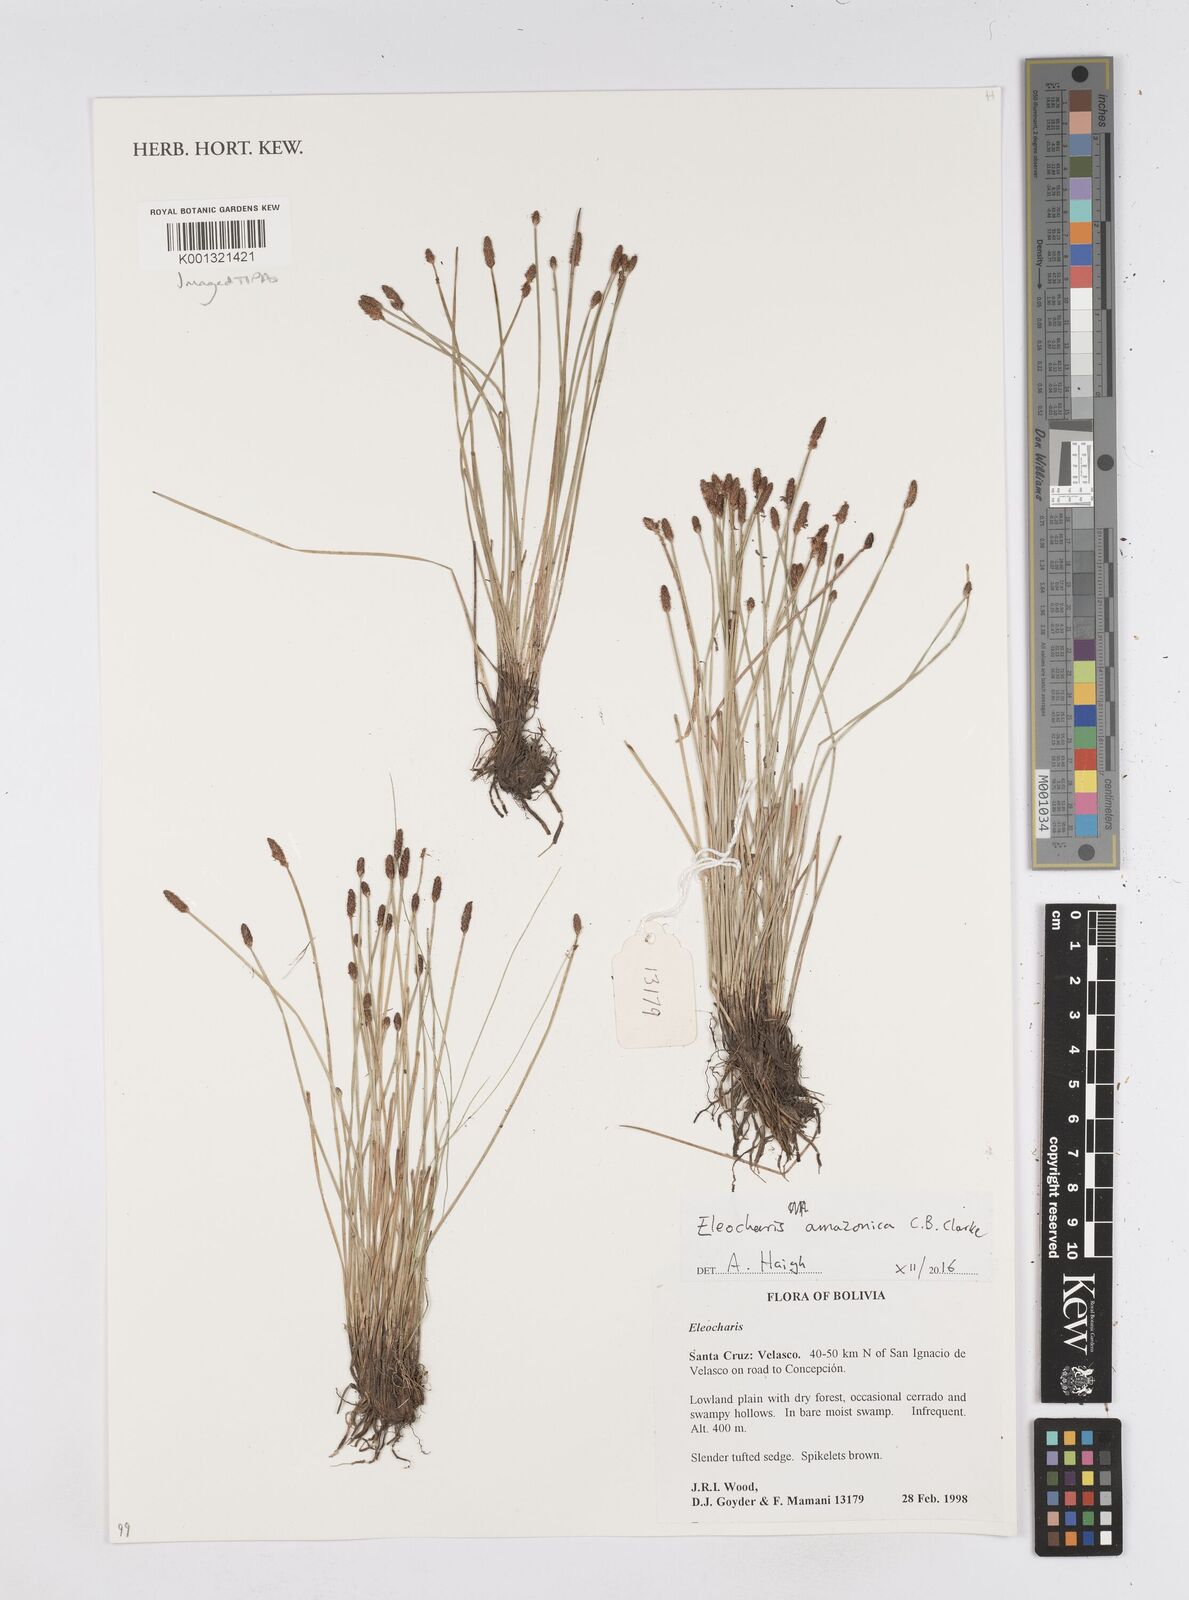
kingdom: Plantae
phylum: Tracheophyta
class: Liliopsida
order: Poales
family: Cyperaceae
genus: Eleocharis
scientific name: Eleocharis amazonica
